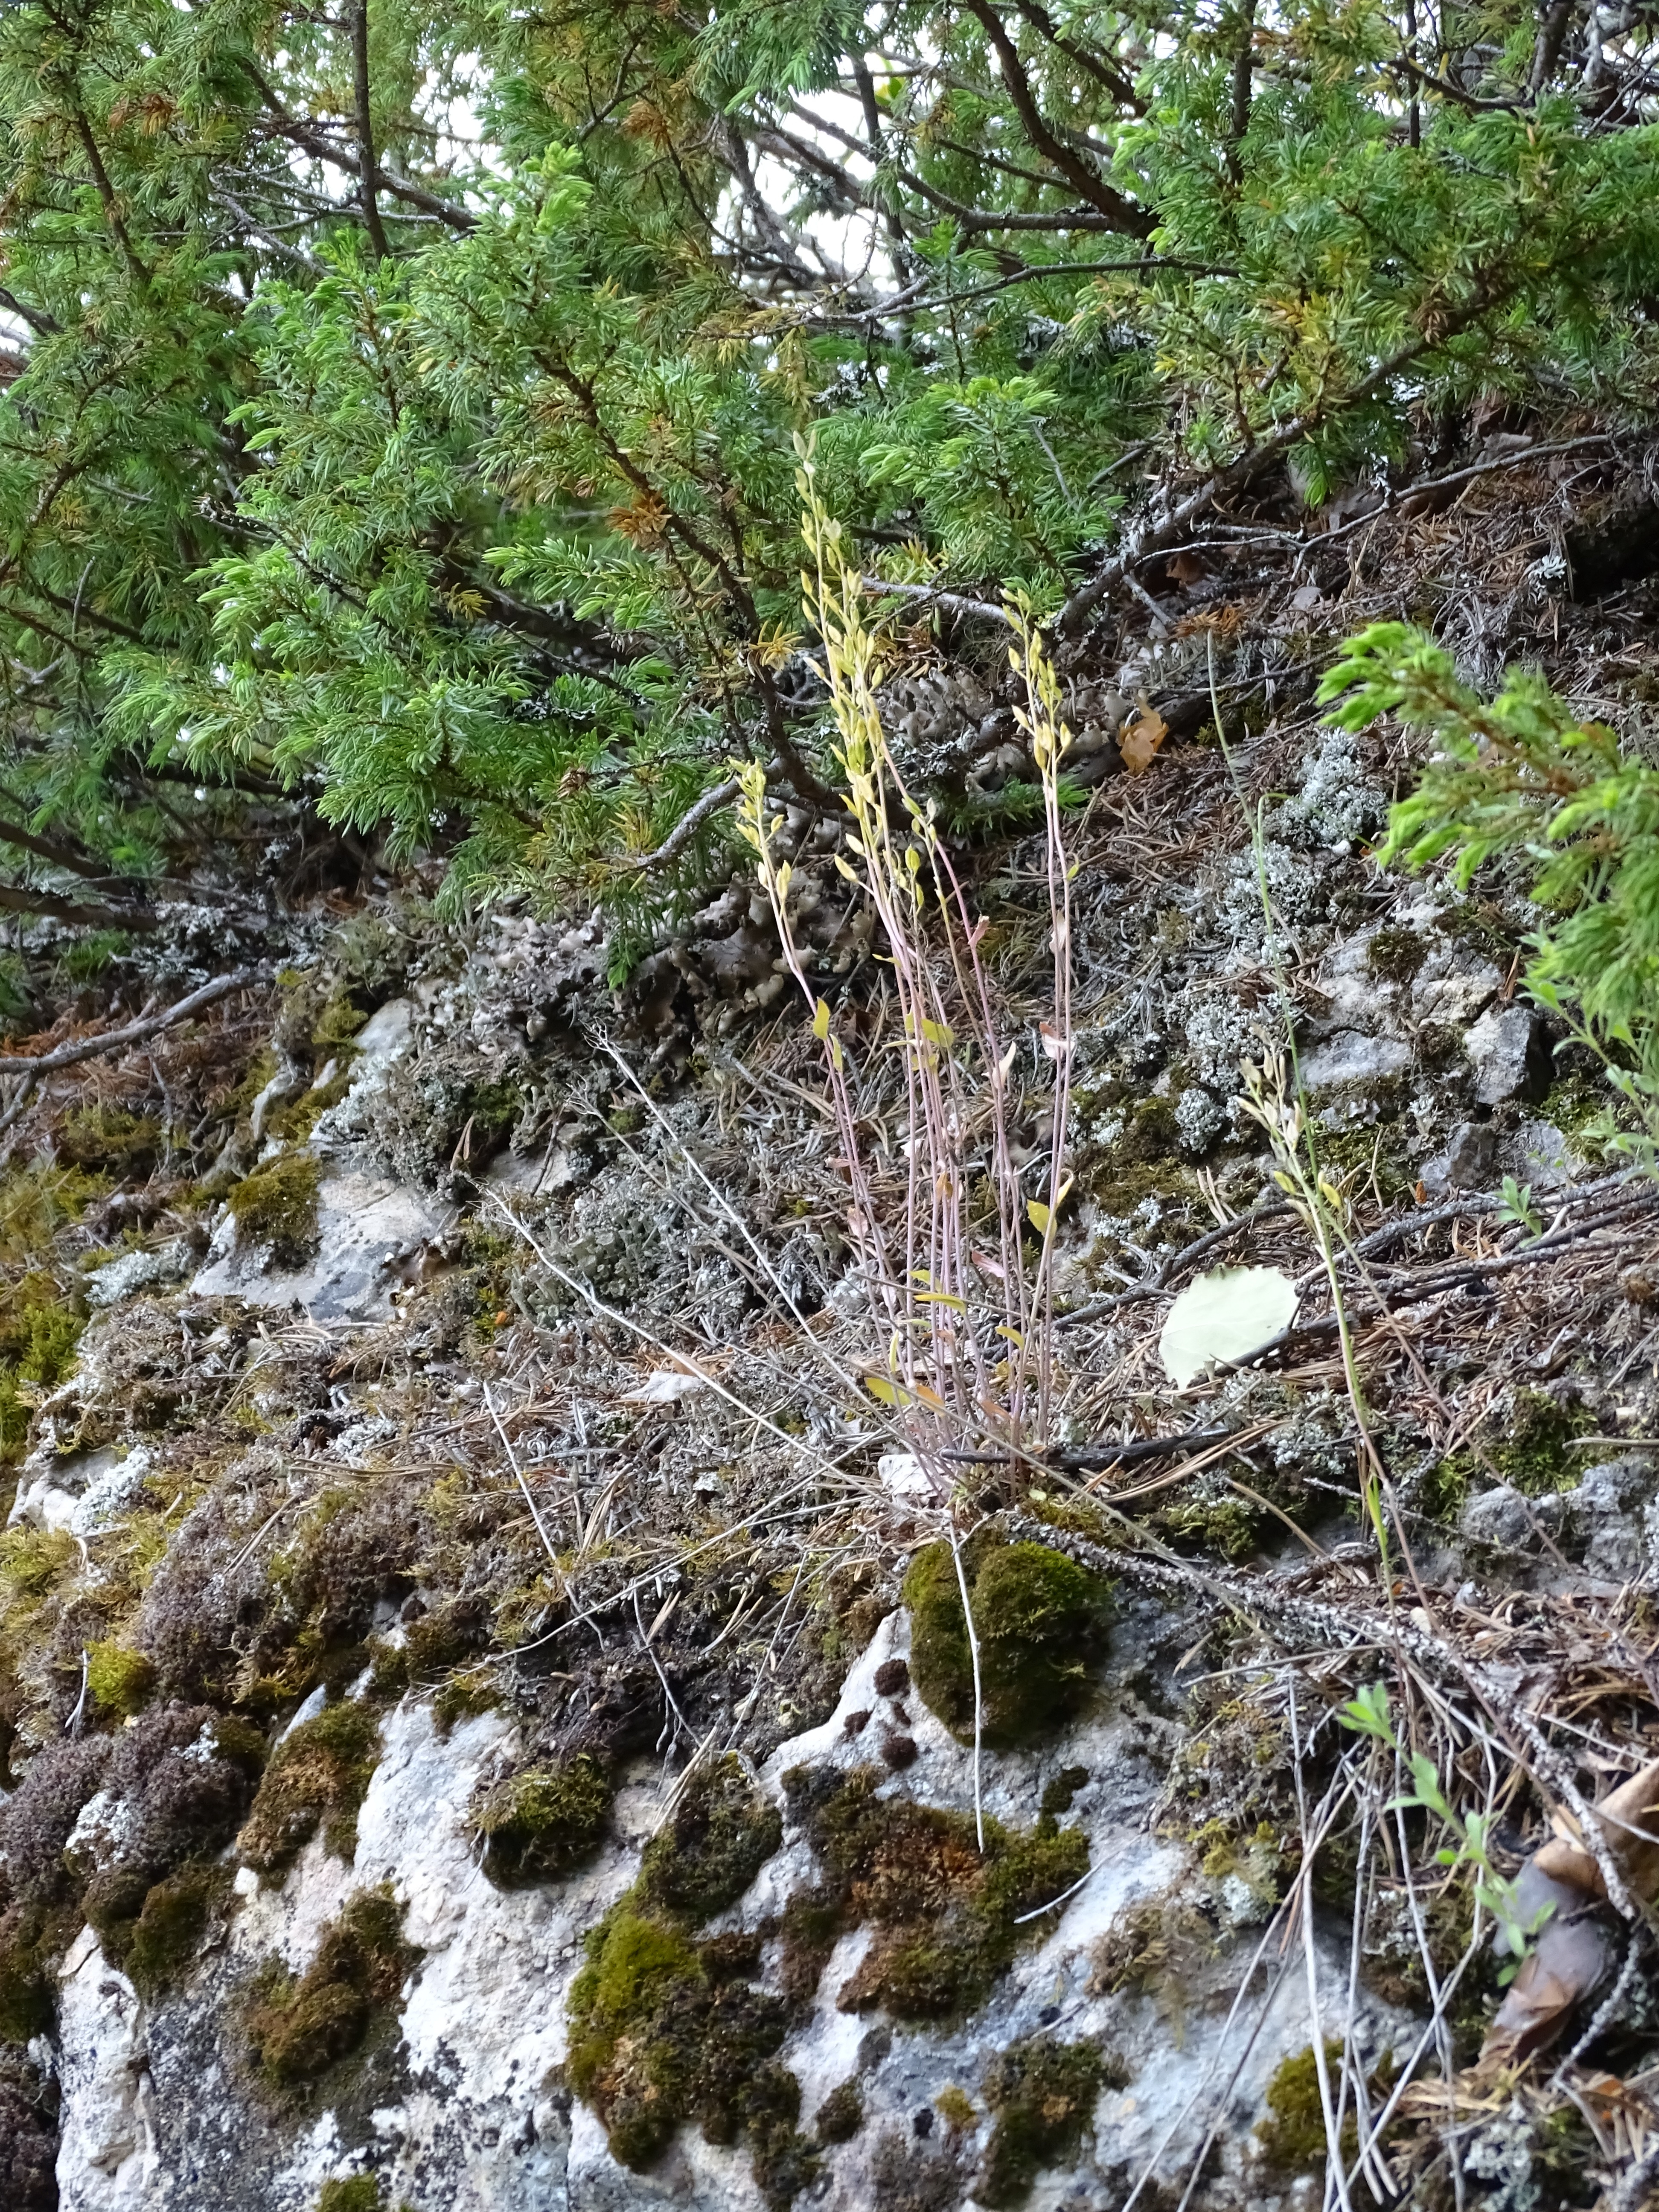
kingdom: Plantae
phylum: Tracheophyta
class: Magnoliopsida
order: Brassicales
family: Brassicaceae
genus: Draba
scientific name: Draba glabella
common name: Glaucous draba
